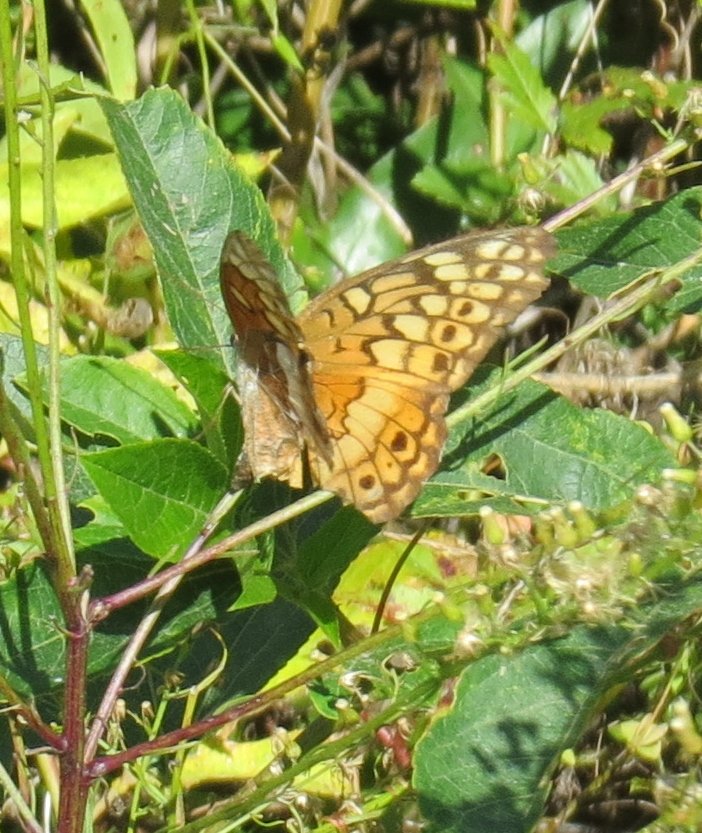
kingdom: Animalia
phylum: Arthropoda
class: Insecta
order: Lepidoptera
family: Nymphalidae
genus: Euptoieta
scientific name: Euptoieta claudia
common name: Variegated Fritillary
